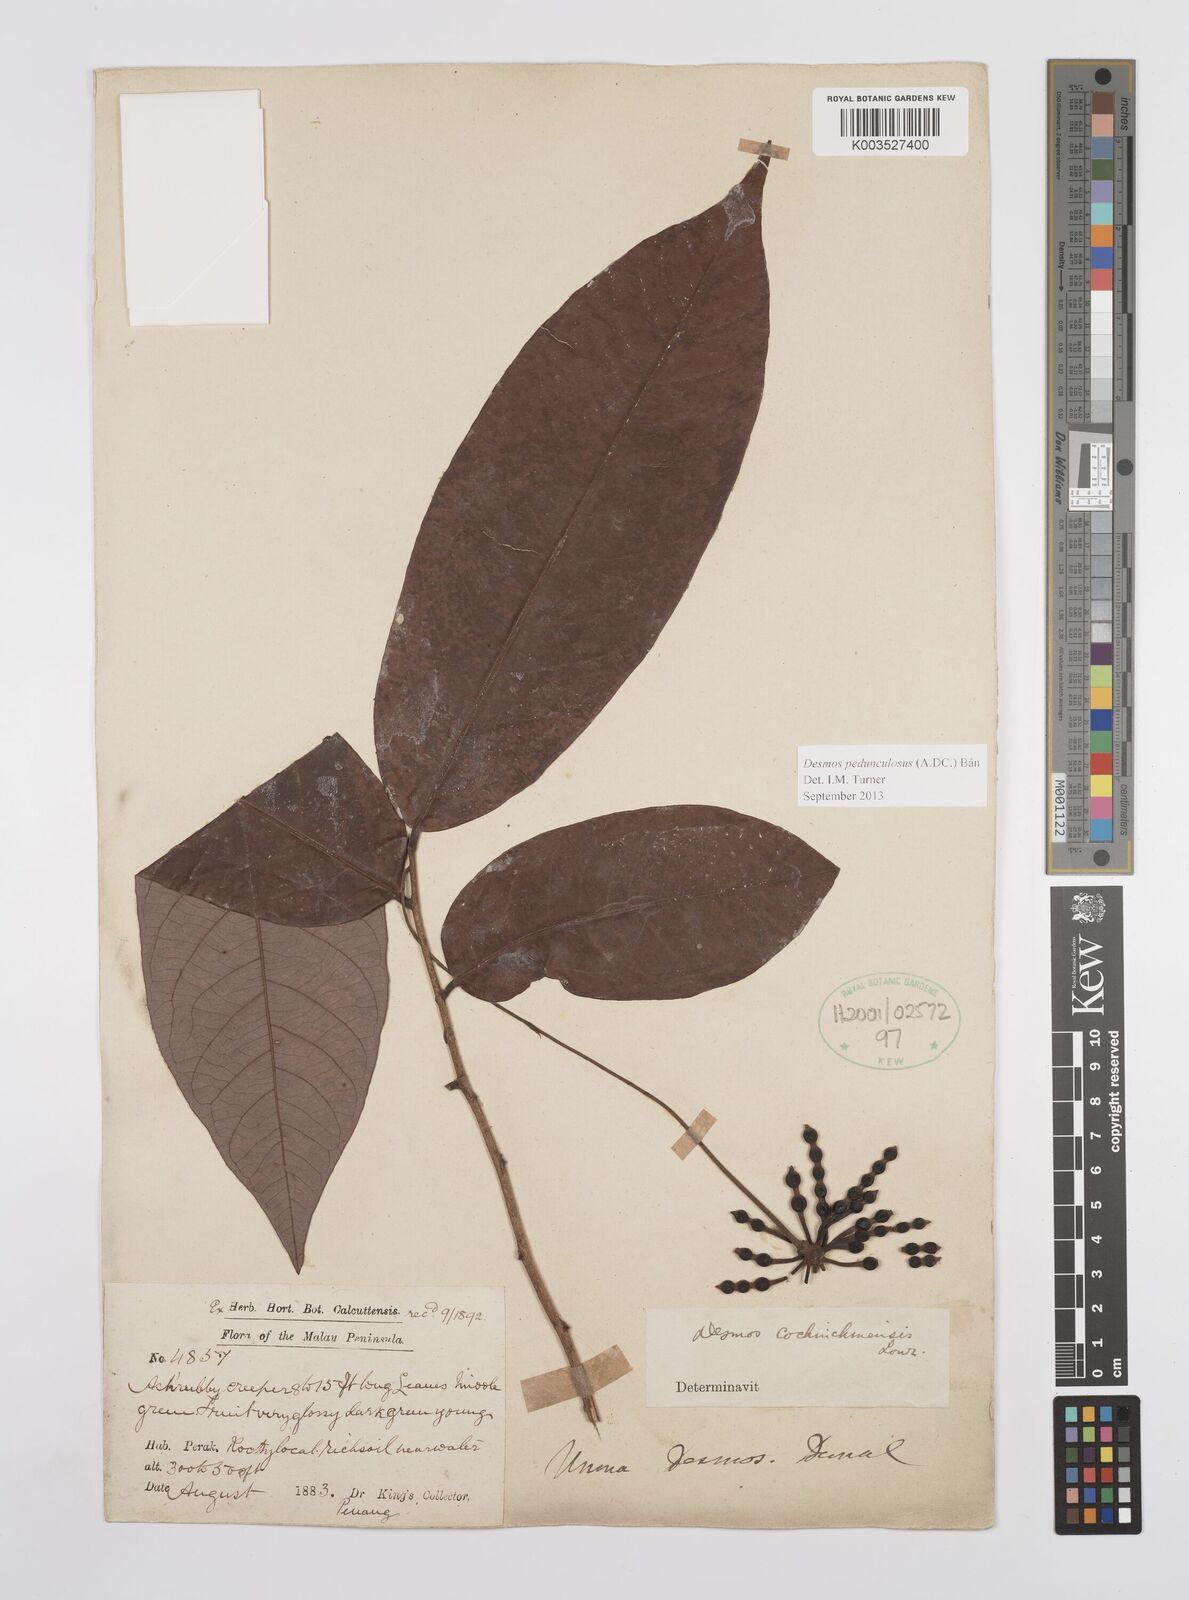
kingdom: Plantae
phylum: Tracheophyta
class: Magnoliopsida
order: Magnoliales
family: Annonaceae
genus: Desmos
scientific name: Desmos cochinchinensis
